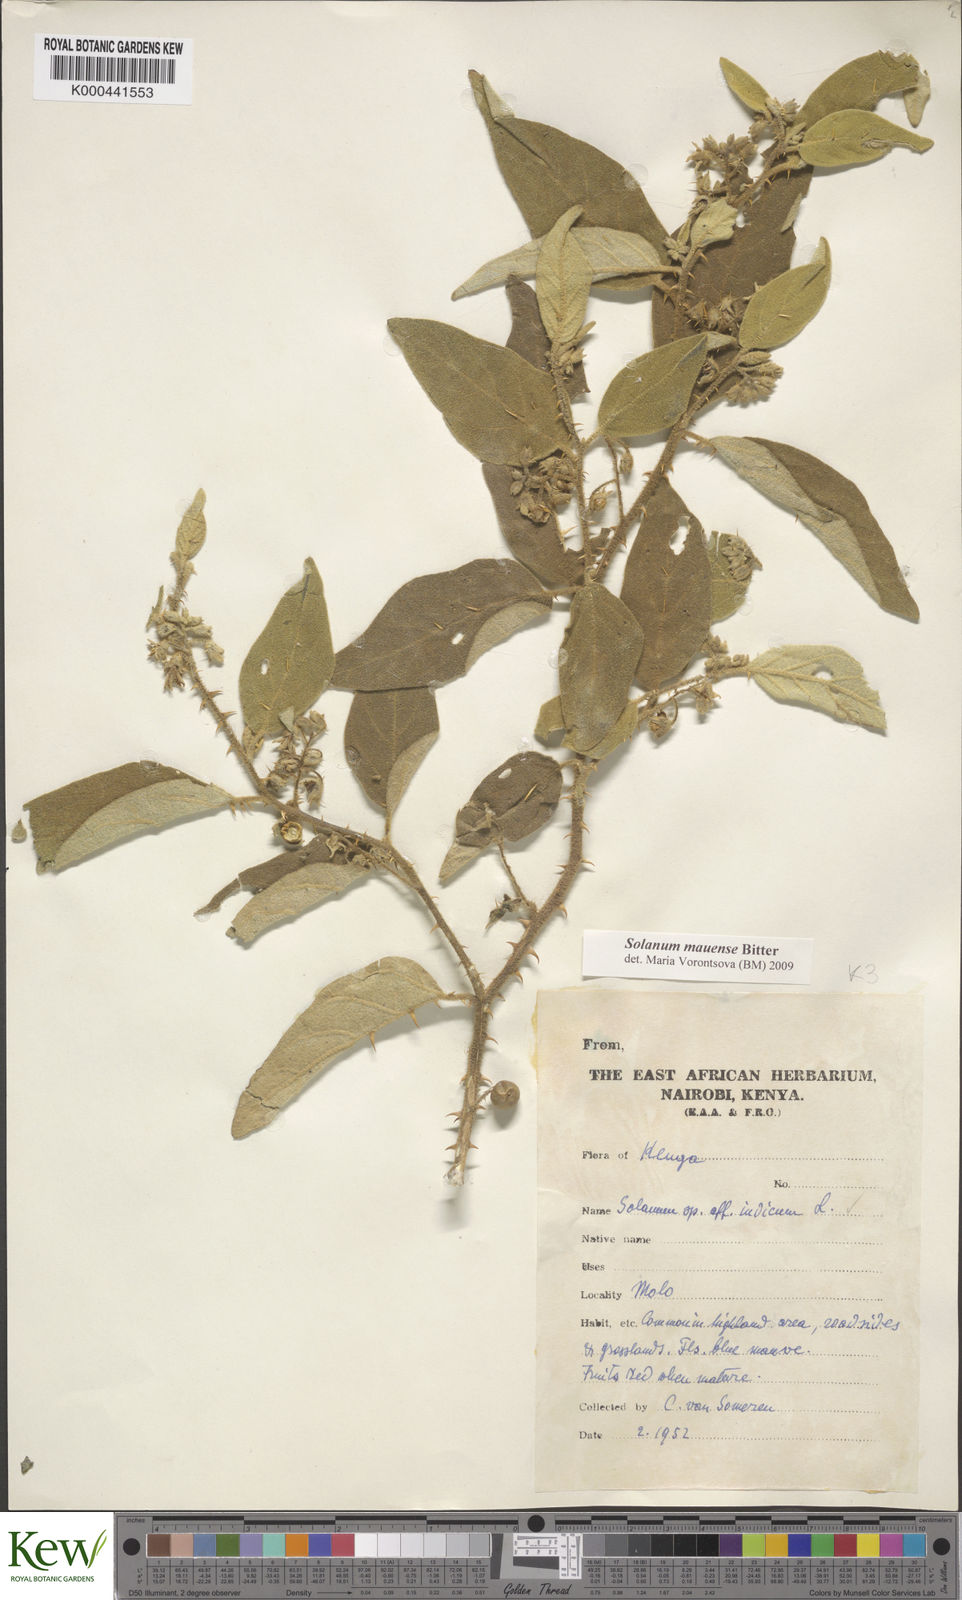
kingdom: Plantae
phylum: Tracheophyta
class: Magnoliopsida
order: Solanales
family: Solanaceae
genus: Solanum
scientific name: Solanum mauense
